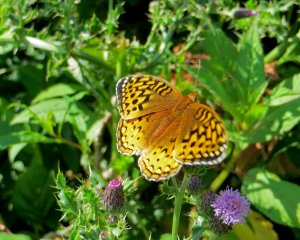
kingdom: Animalia
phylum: Arthropoda
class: Insecta
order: Lepidoptera
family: Nymphalidae
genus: Speyeria
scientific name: Speyeria cybele
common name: Great Spangled Fritillary
